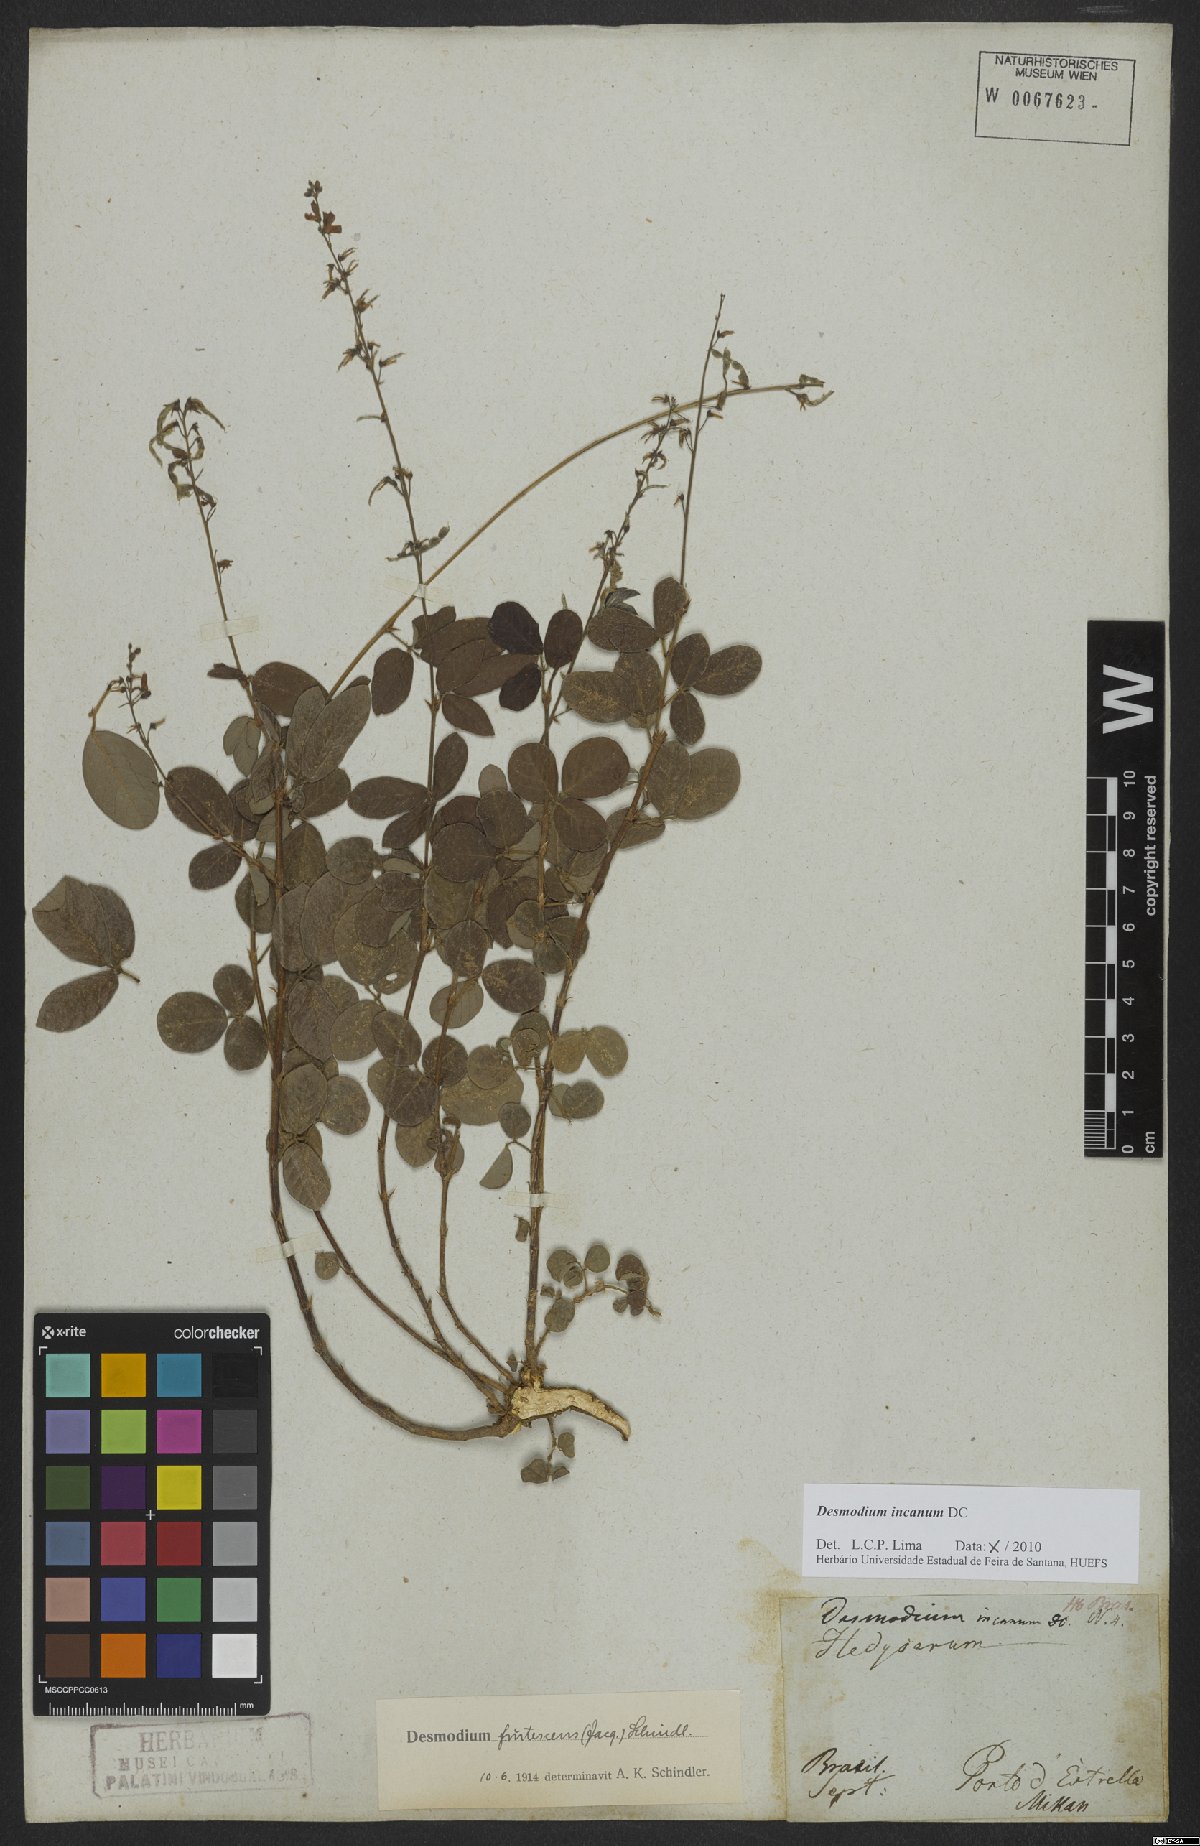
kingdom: Plantae
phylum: Tracheophyta
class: Magnoliopsida
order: Fabales
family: Fabaceae
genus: Desmodium
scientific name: Desmodium incanum
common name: Tickclover
